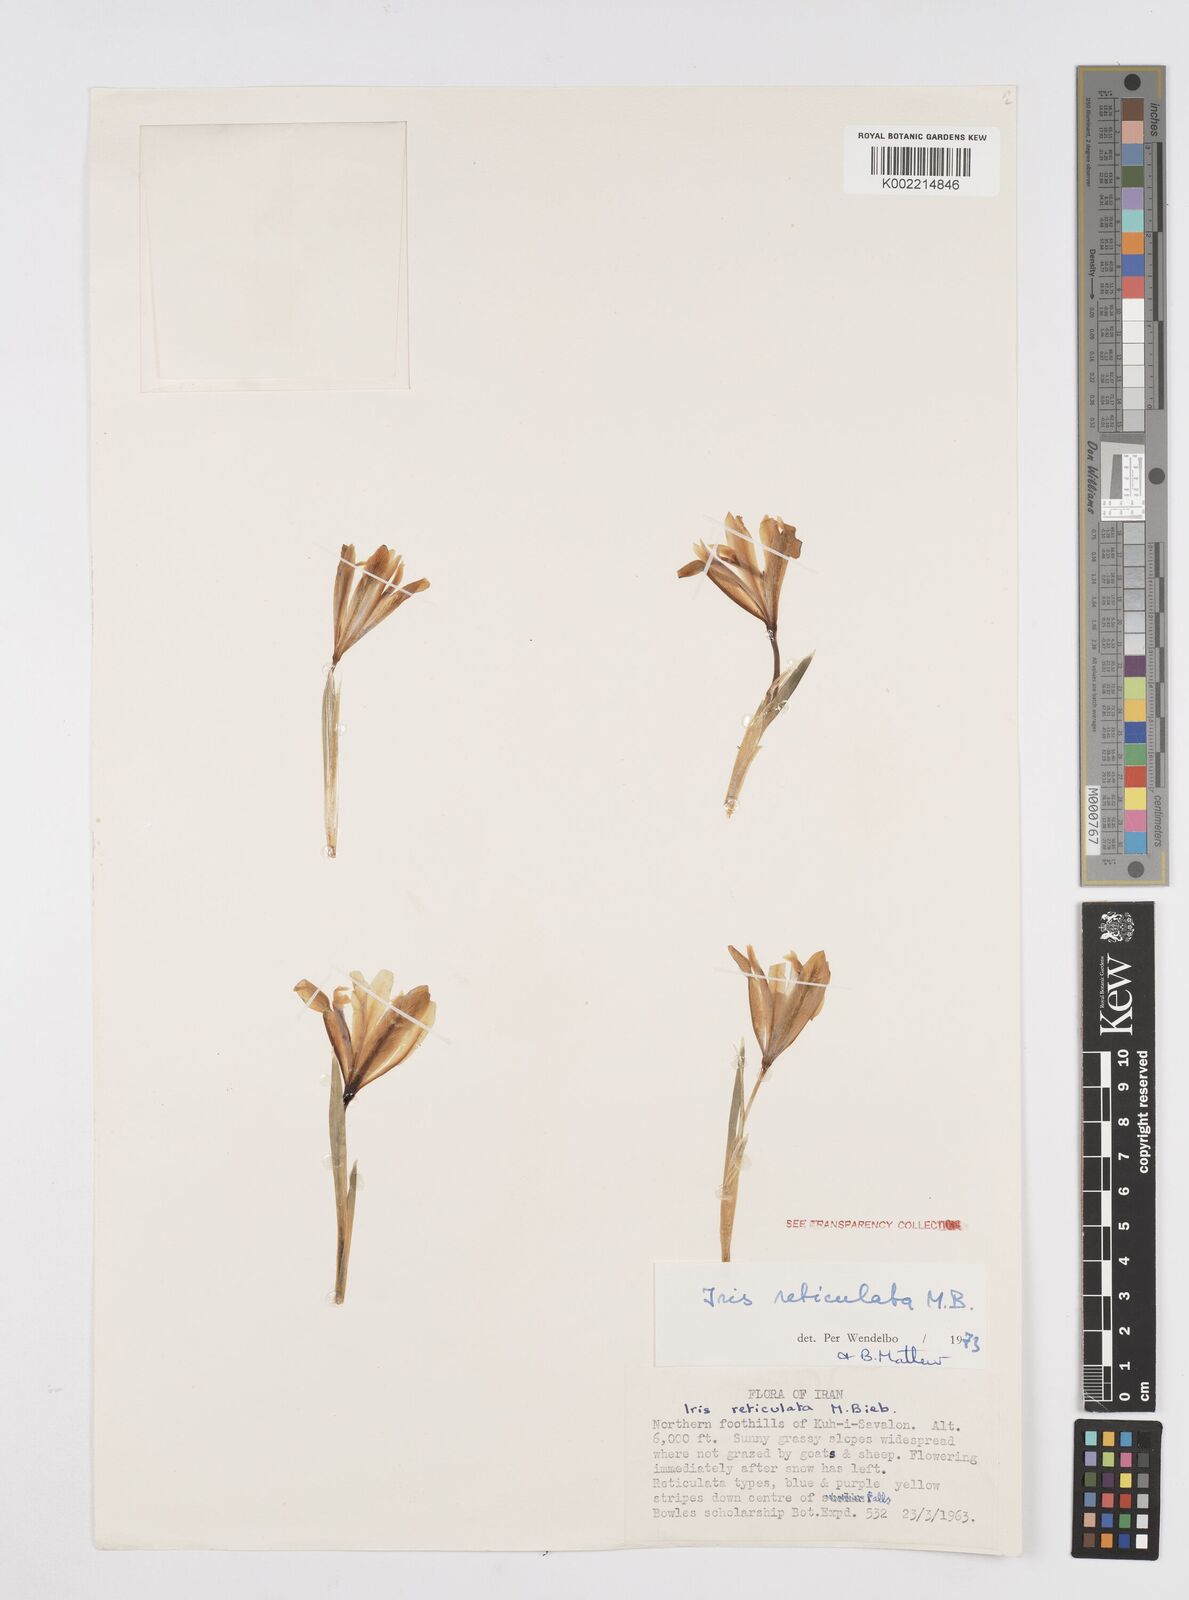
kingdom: Plantae
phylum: Tracheophyta
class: Liliopsida
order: Asparagales
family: Iridaceae
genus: Iris
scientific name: Iris reticulata
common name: Netted iris
